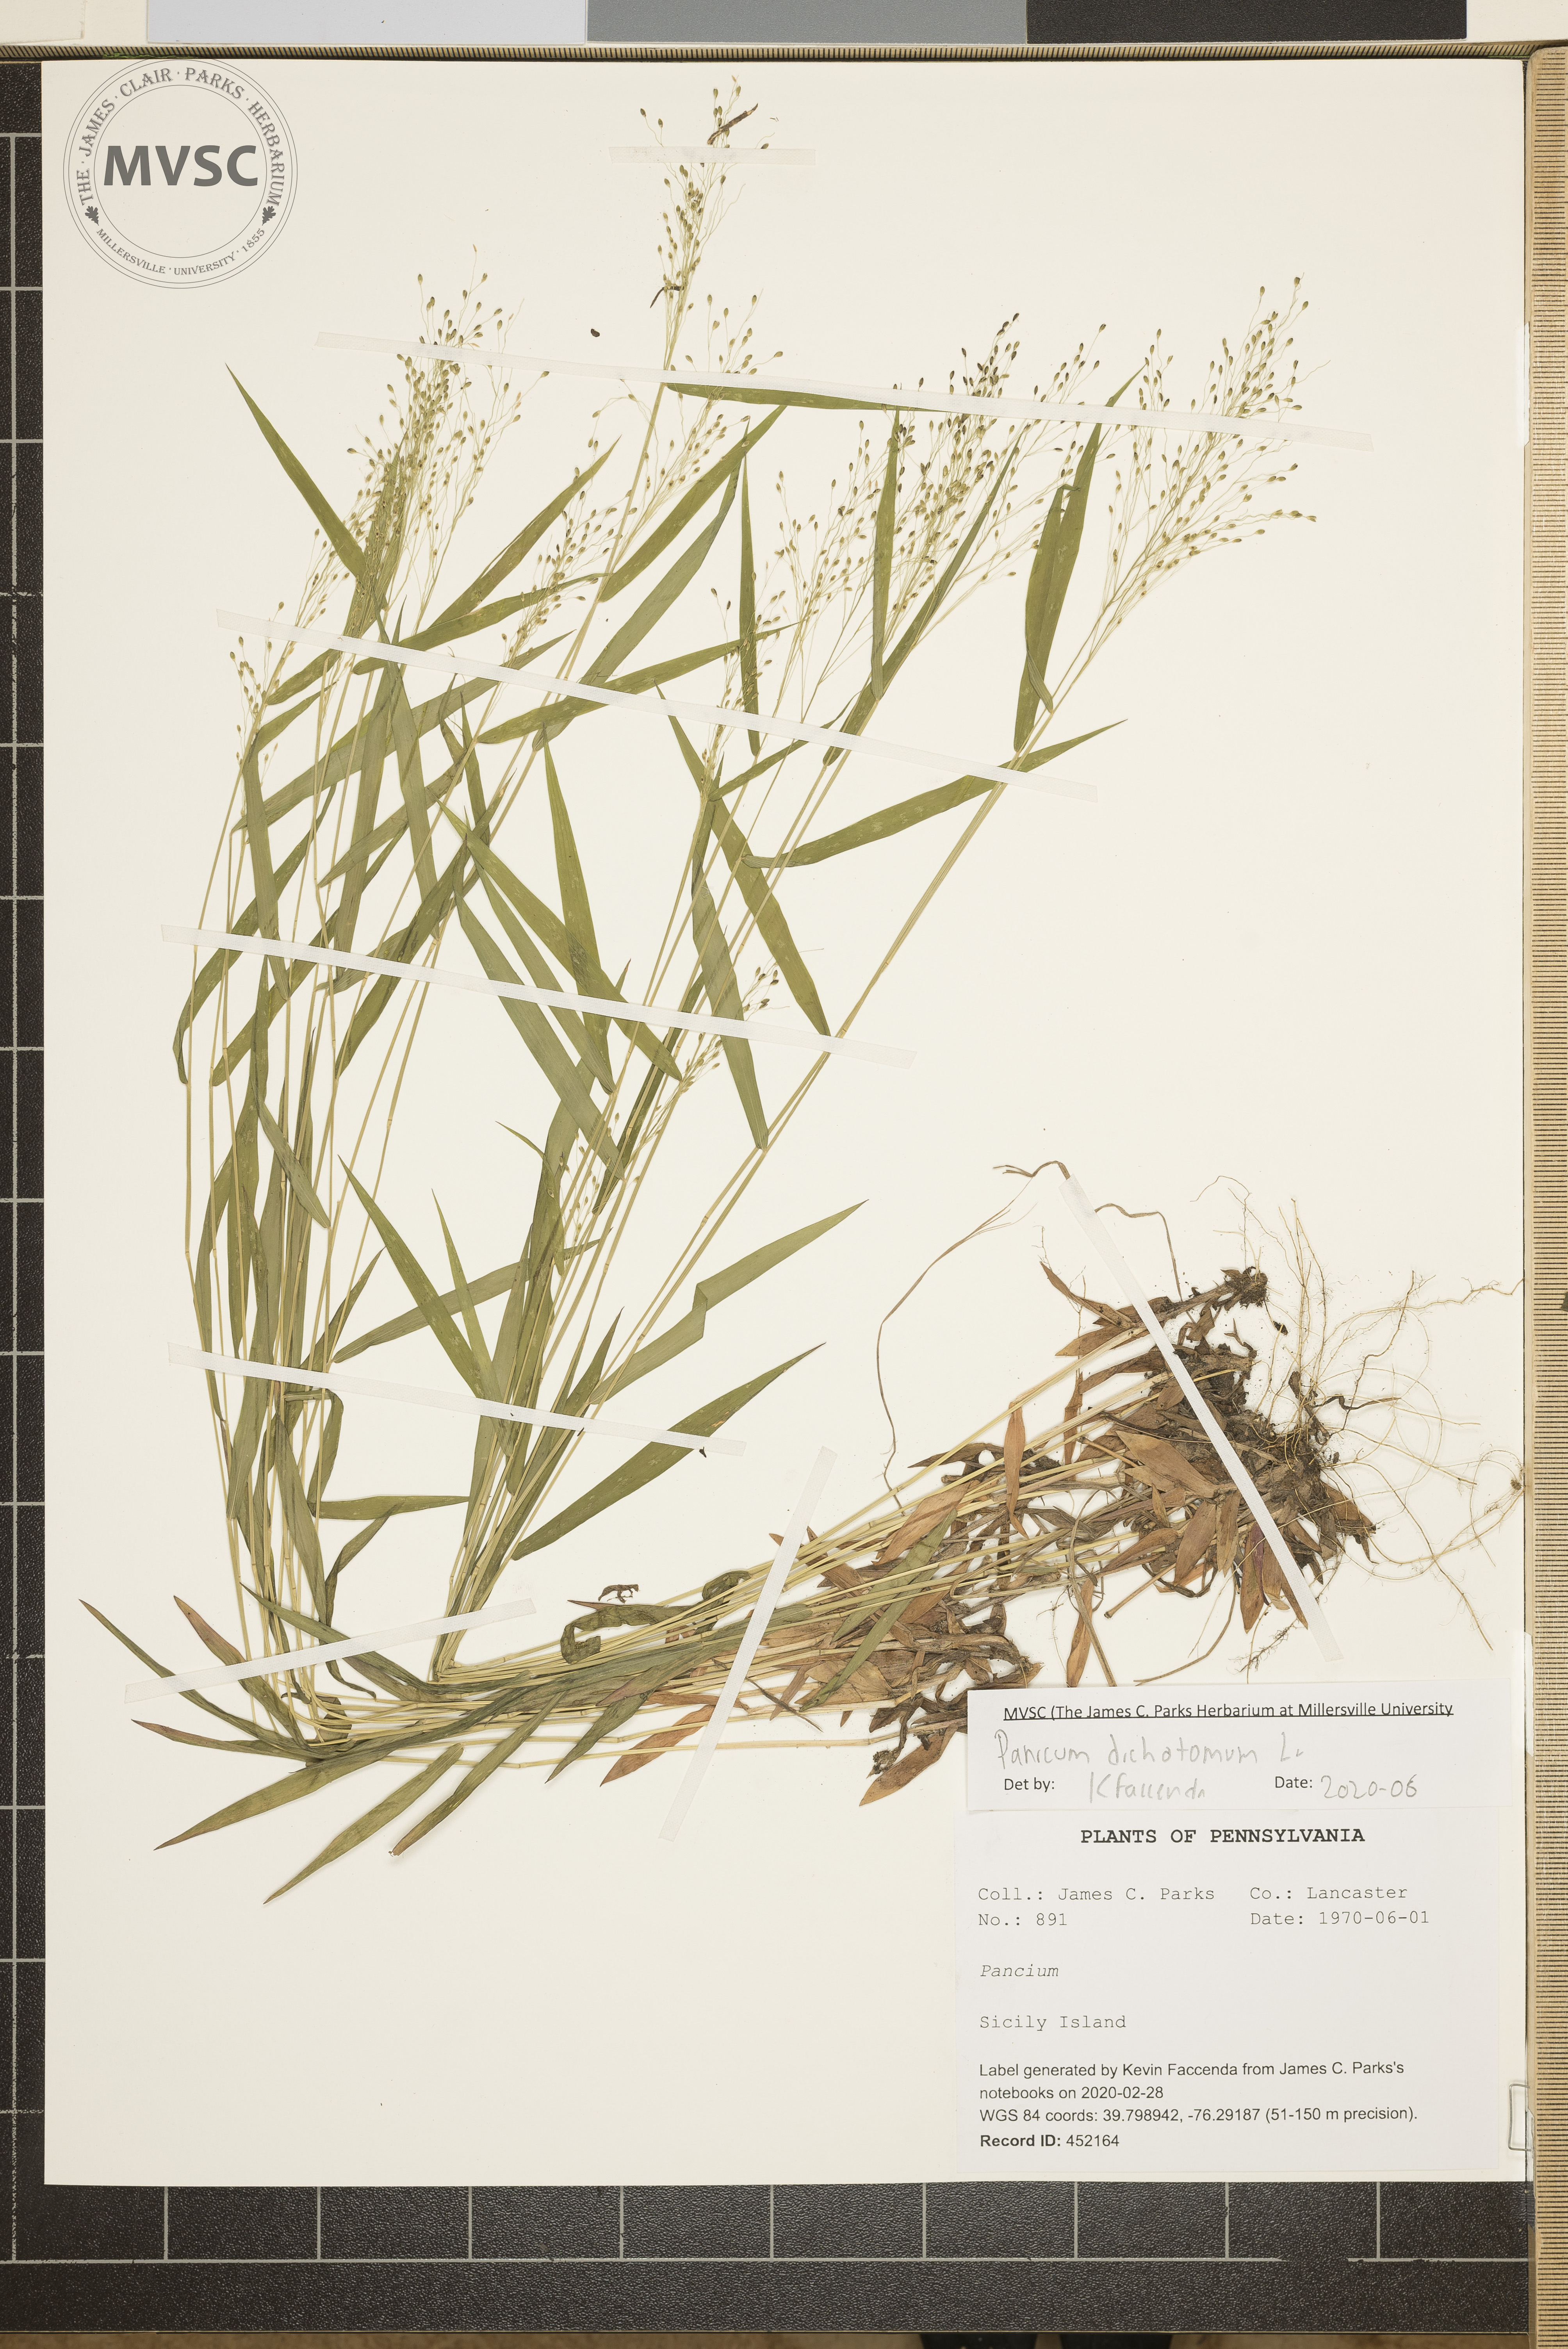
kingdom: Plantae
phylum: Tracheophyta
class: Liliopsida
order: Poales
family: Poaceae
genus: Dichanthelium
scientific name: Dichanthelium dichotomum
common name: Cypress panicgrass
